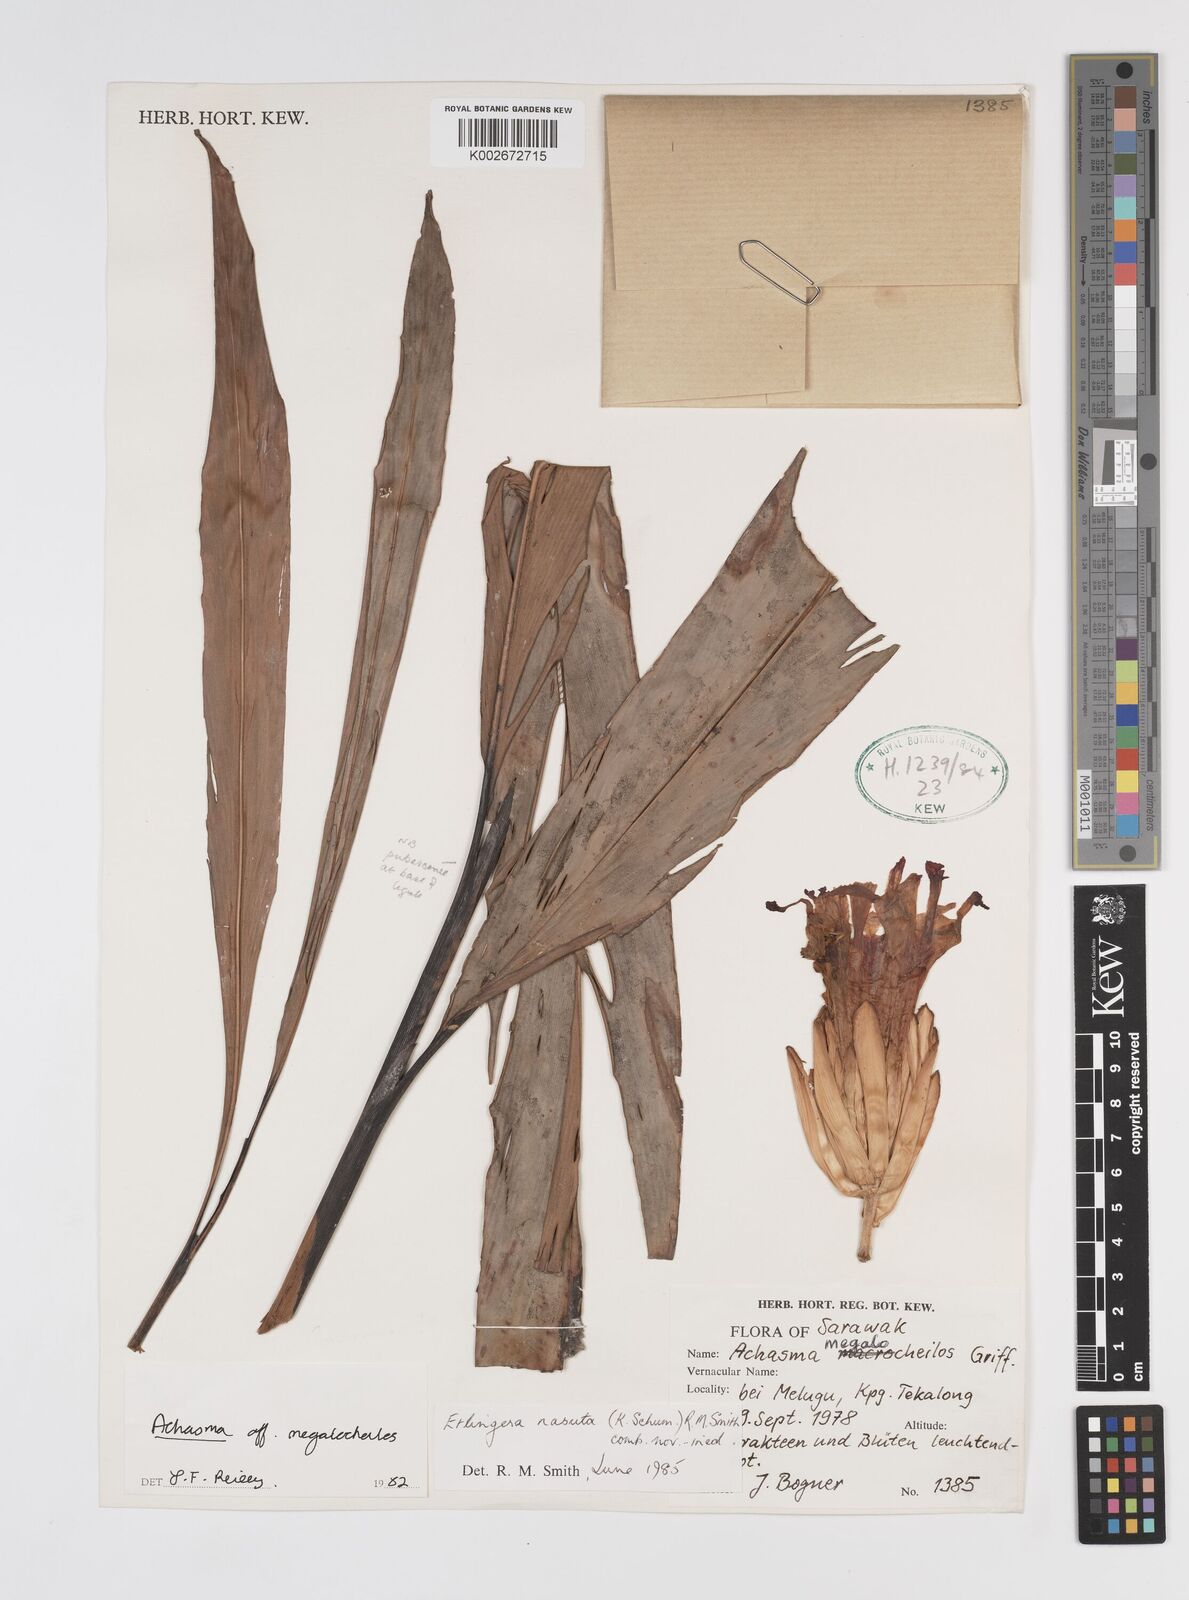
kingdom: Plantae
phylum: Tracheophyta
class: Liliopsida
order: Zingiberales
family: Zingiberaceae
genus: Etlingera
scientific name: Etlingera nasuta
